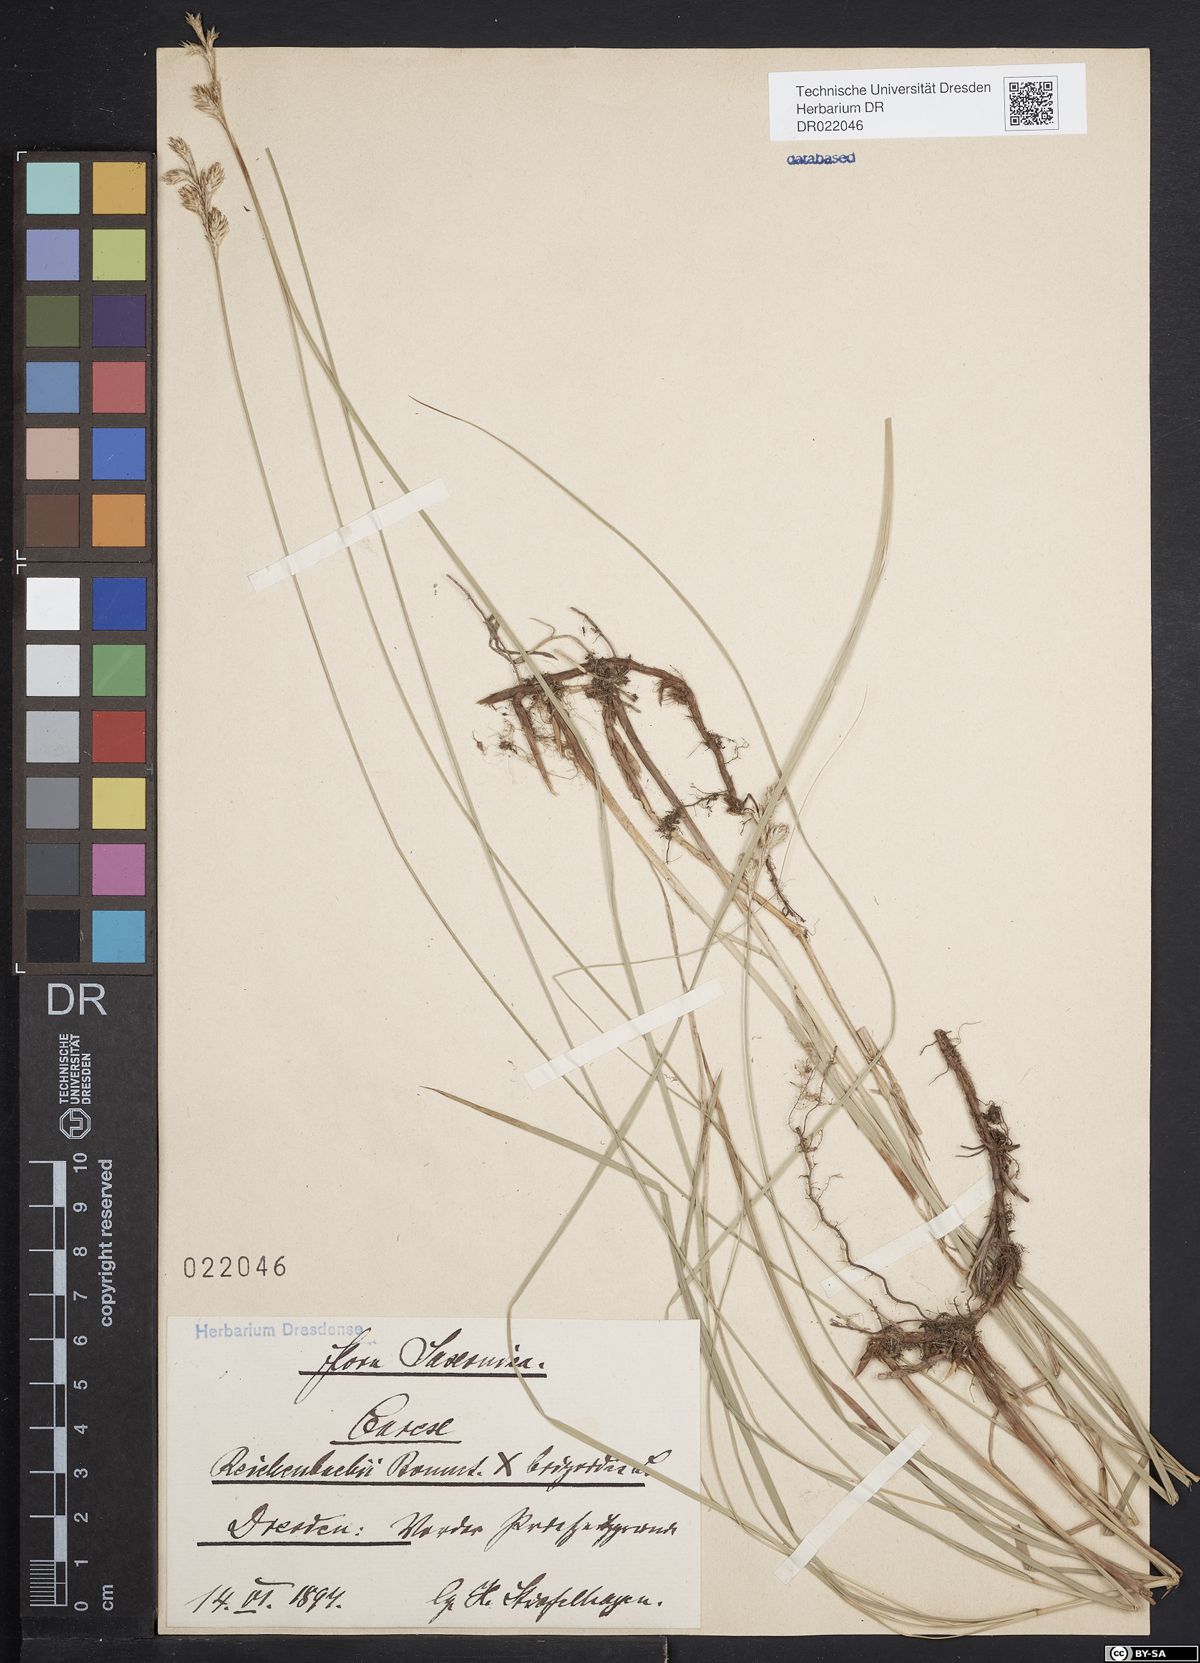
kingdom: Plantae
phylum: Tracheophyta
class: Liliopsida
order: Poales
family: Cyperaceae
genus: Carex
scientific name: Carex pseudobrizoides
